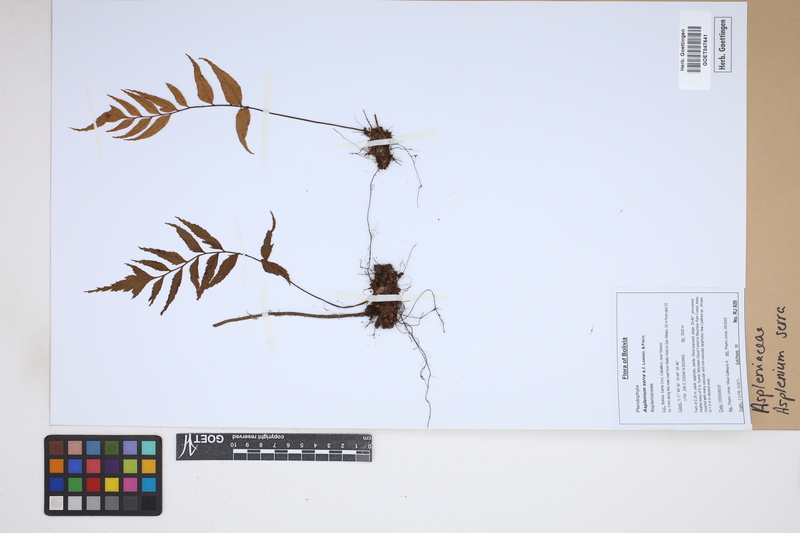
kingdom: Plantae
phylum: Tracheophyta
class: Polypodiopsida
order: Polypodiales
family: Aspleniaceae
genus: Asplenium
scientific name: Asplenium serra
